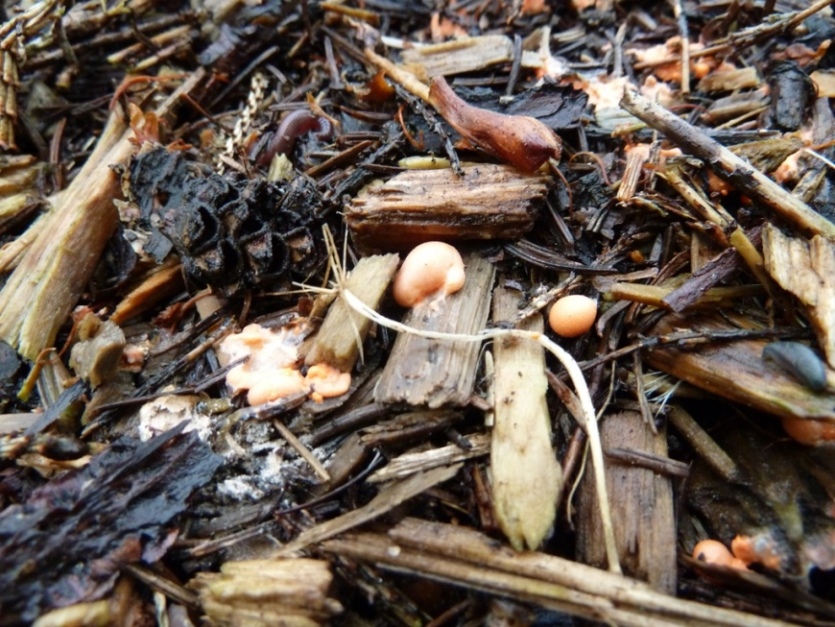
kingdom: Protozoa
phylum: Mycetozoa
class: Myxomycetes
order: Cribrariales
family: Tubiferaceae
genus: Lycogala
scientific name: Lycogala epidendrum
